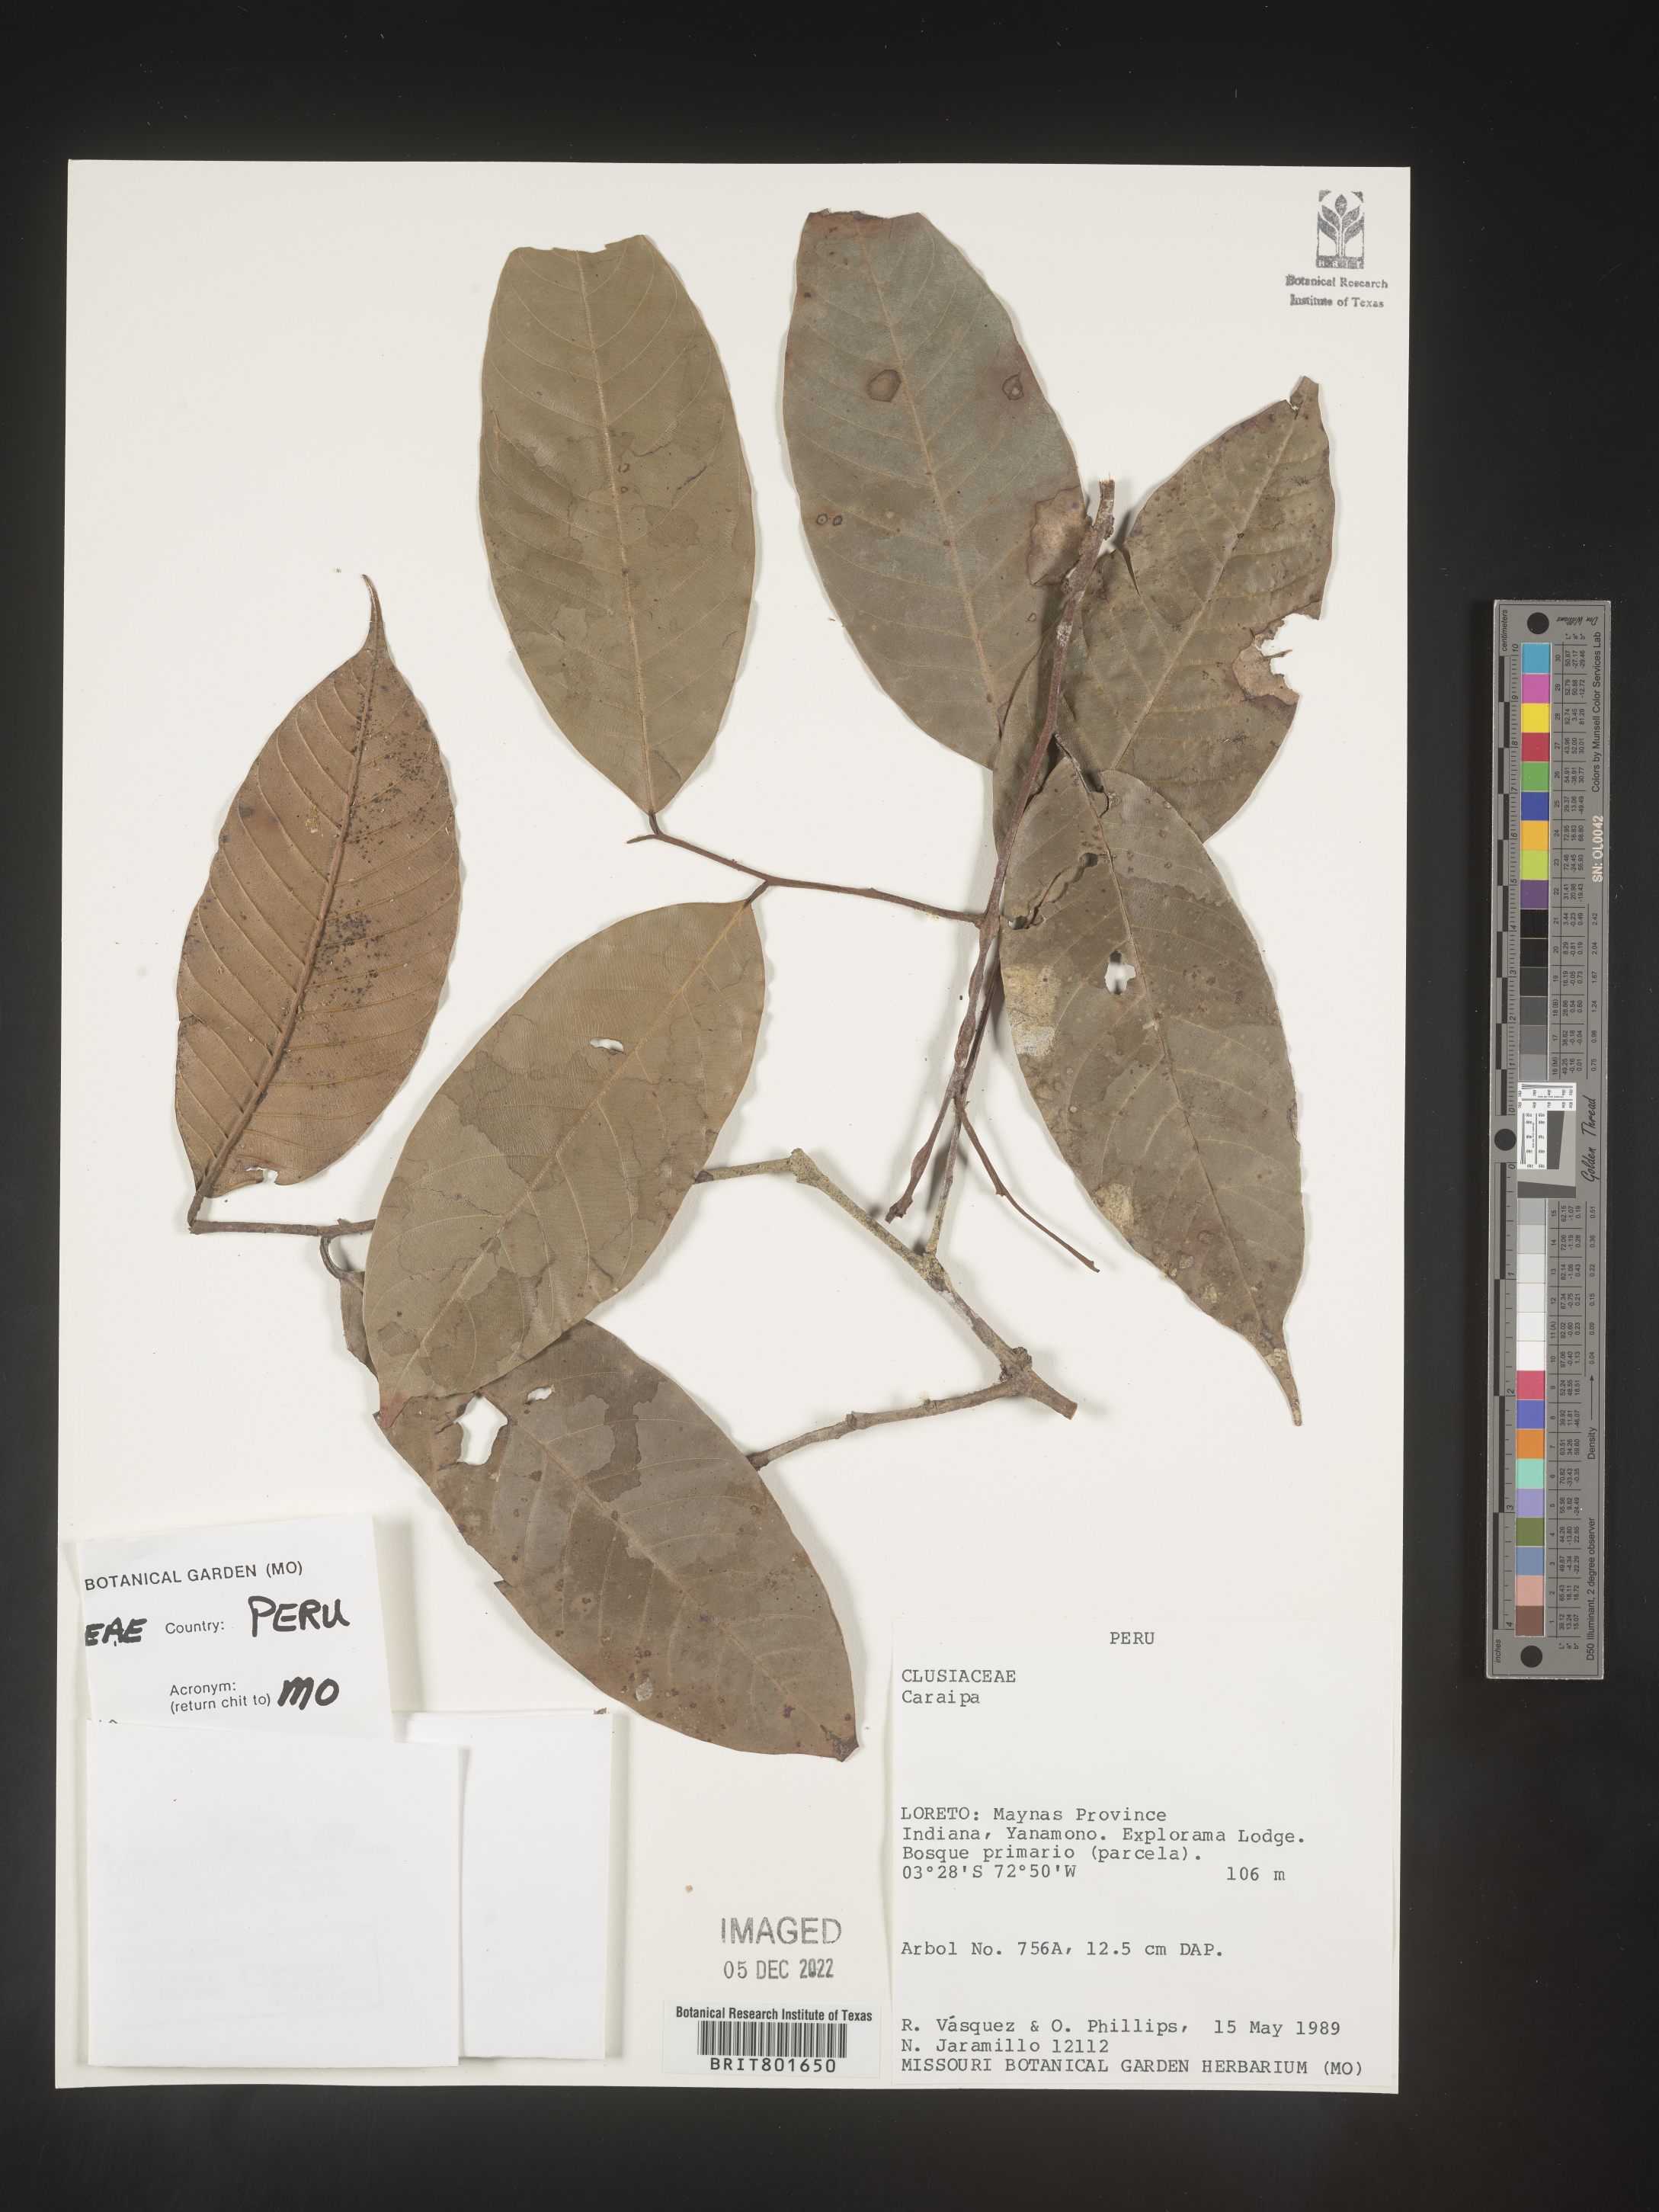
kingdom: Plantae
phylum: Tracheophyta
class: Magnoliopsida
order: Malpighiales
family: Calophyllaceae
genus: Caraipa
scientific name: Caraipa
